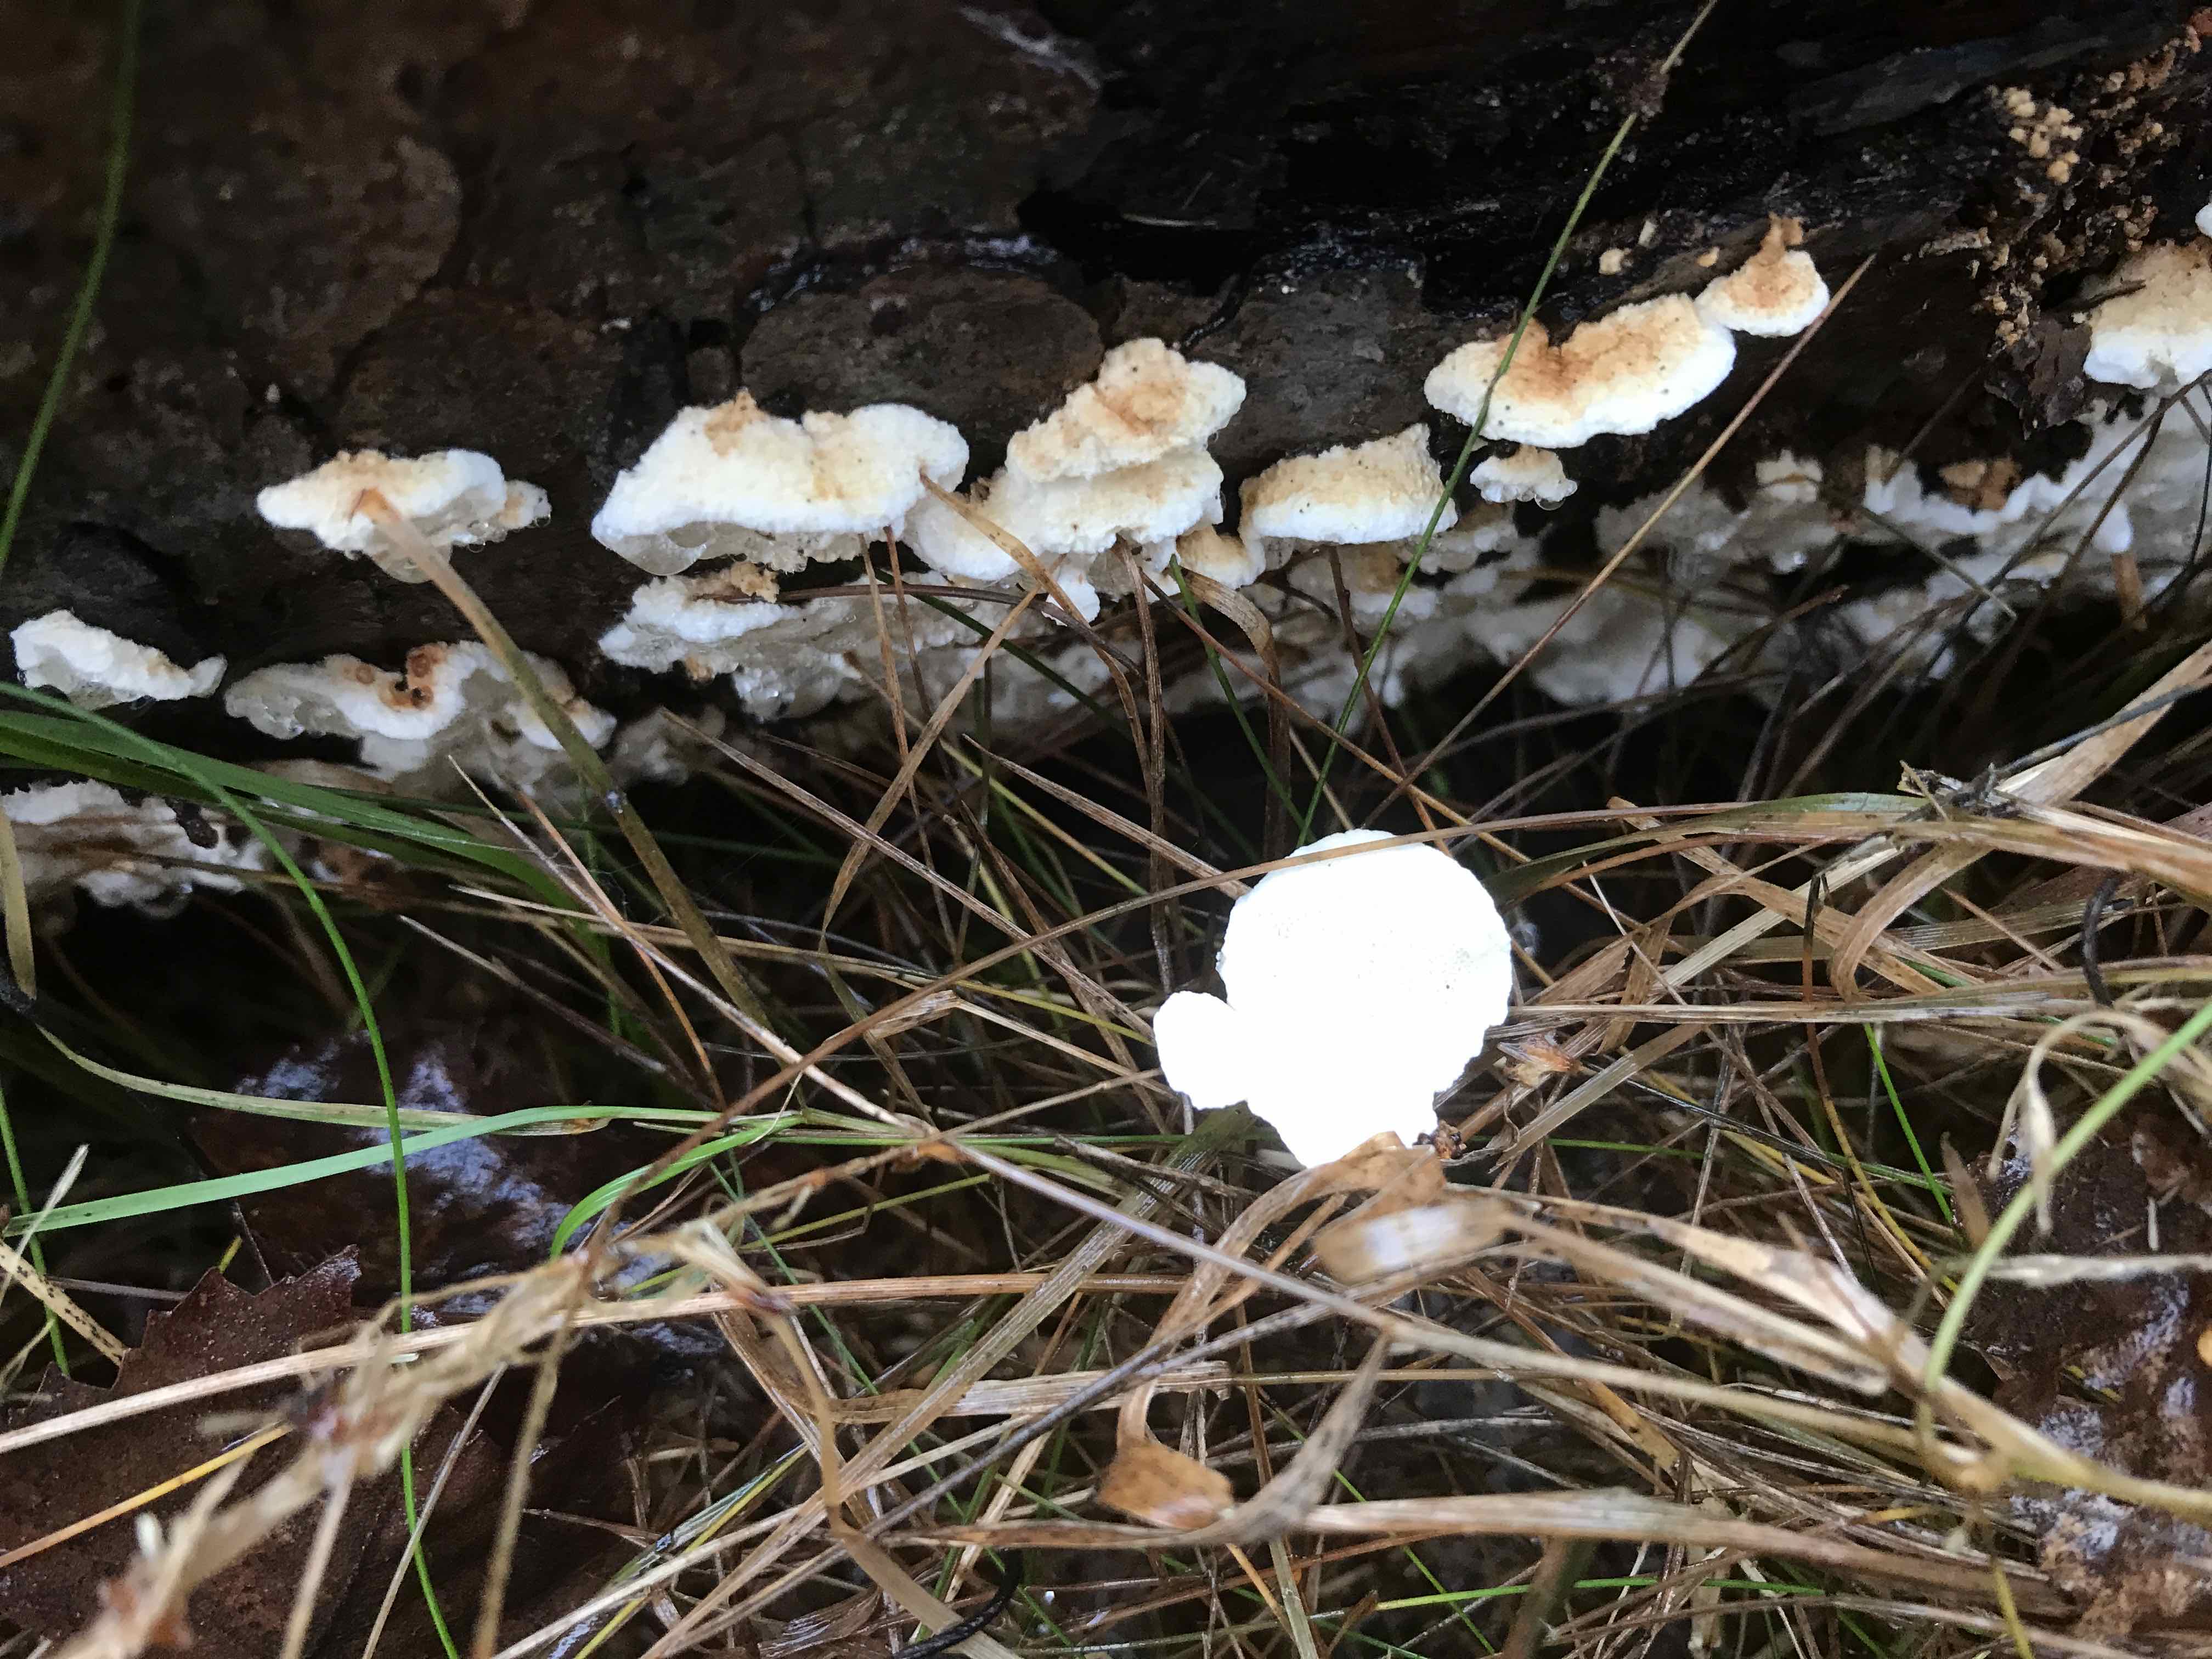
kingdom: Fungi
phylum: Basidiomycota
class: Agaricomycetes
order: Polyporales
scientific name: Polyporales
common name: poresvampordenen
